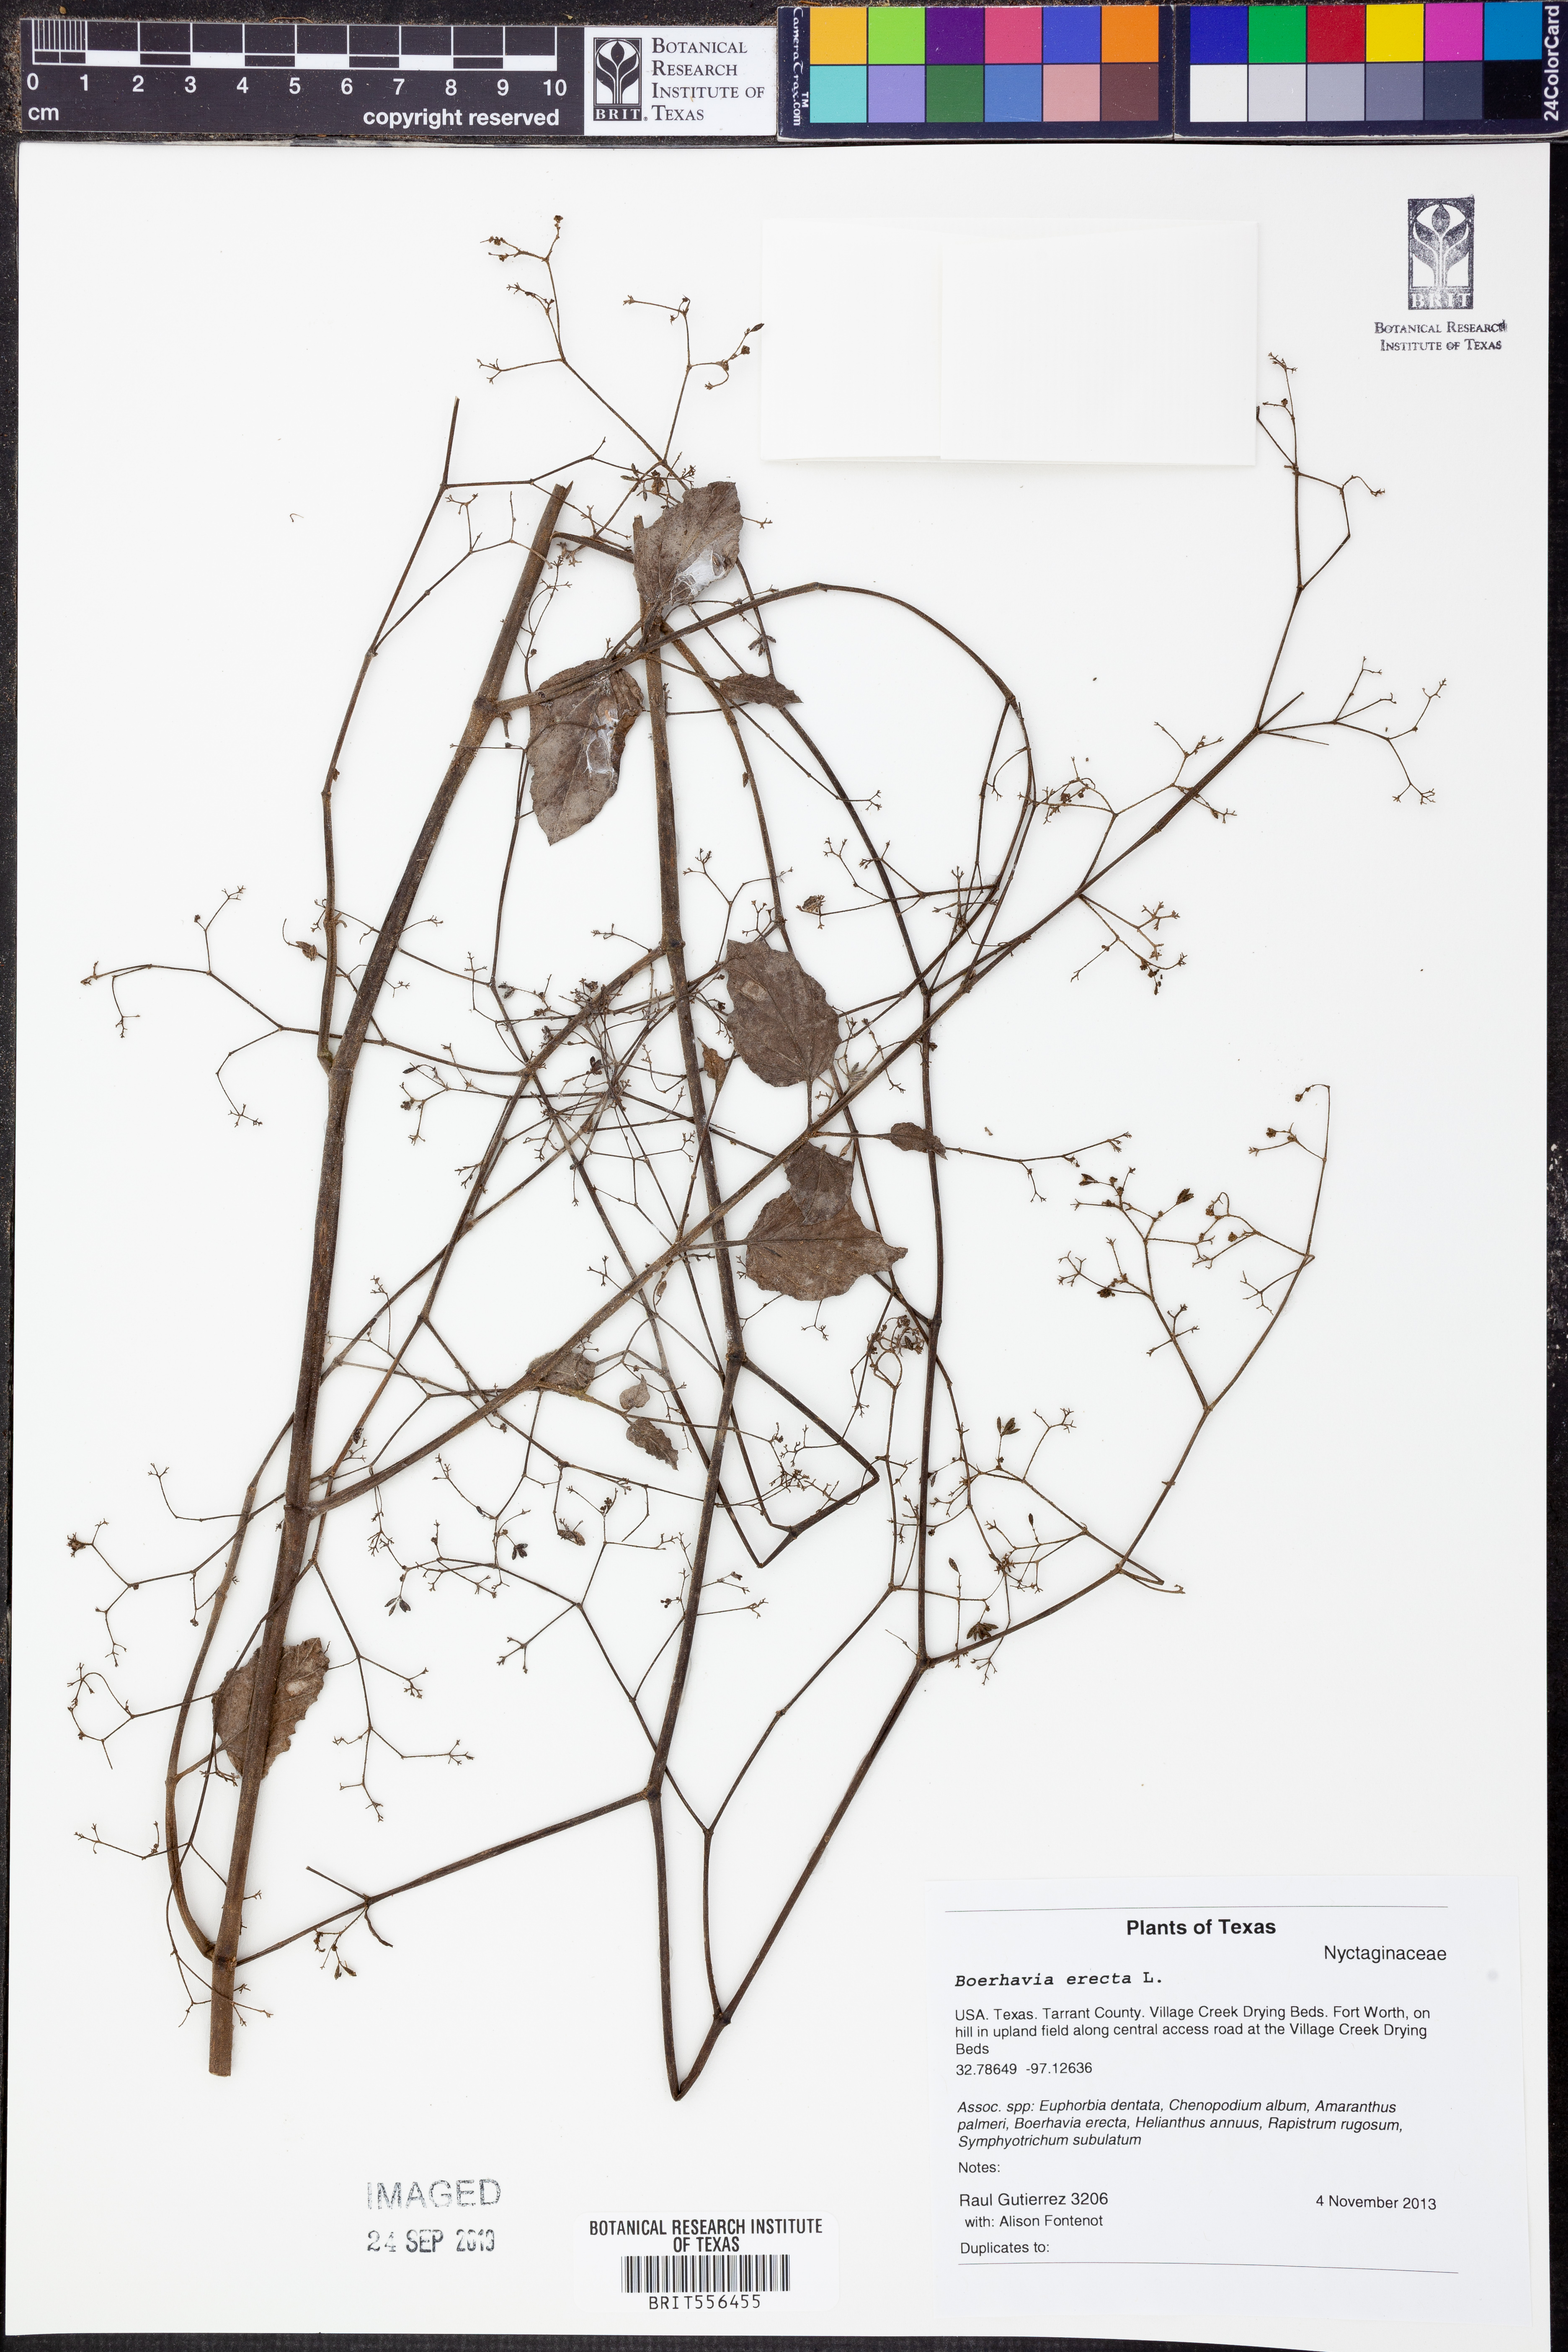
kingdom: Plantae
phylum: Tracheophyta
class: Magnoliopsida
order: Caryophyllales
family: Nyctaginaceae
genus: Boerhavia
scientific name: Boerhavia erecta
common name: Erect spiderling
